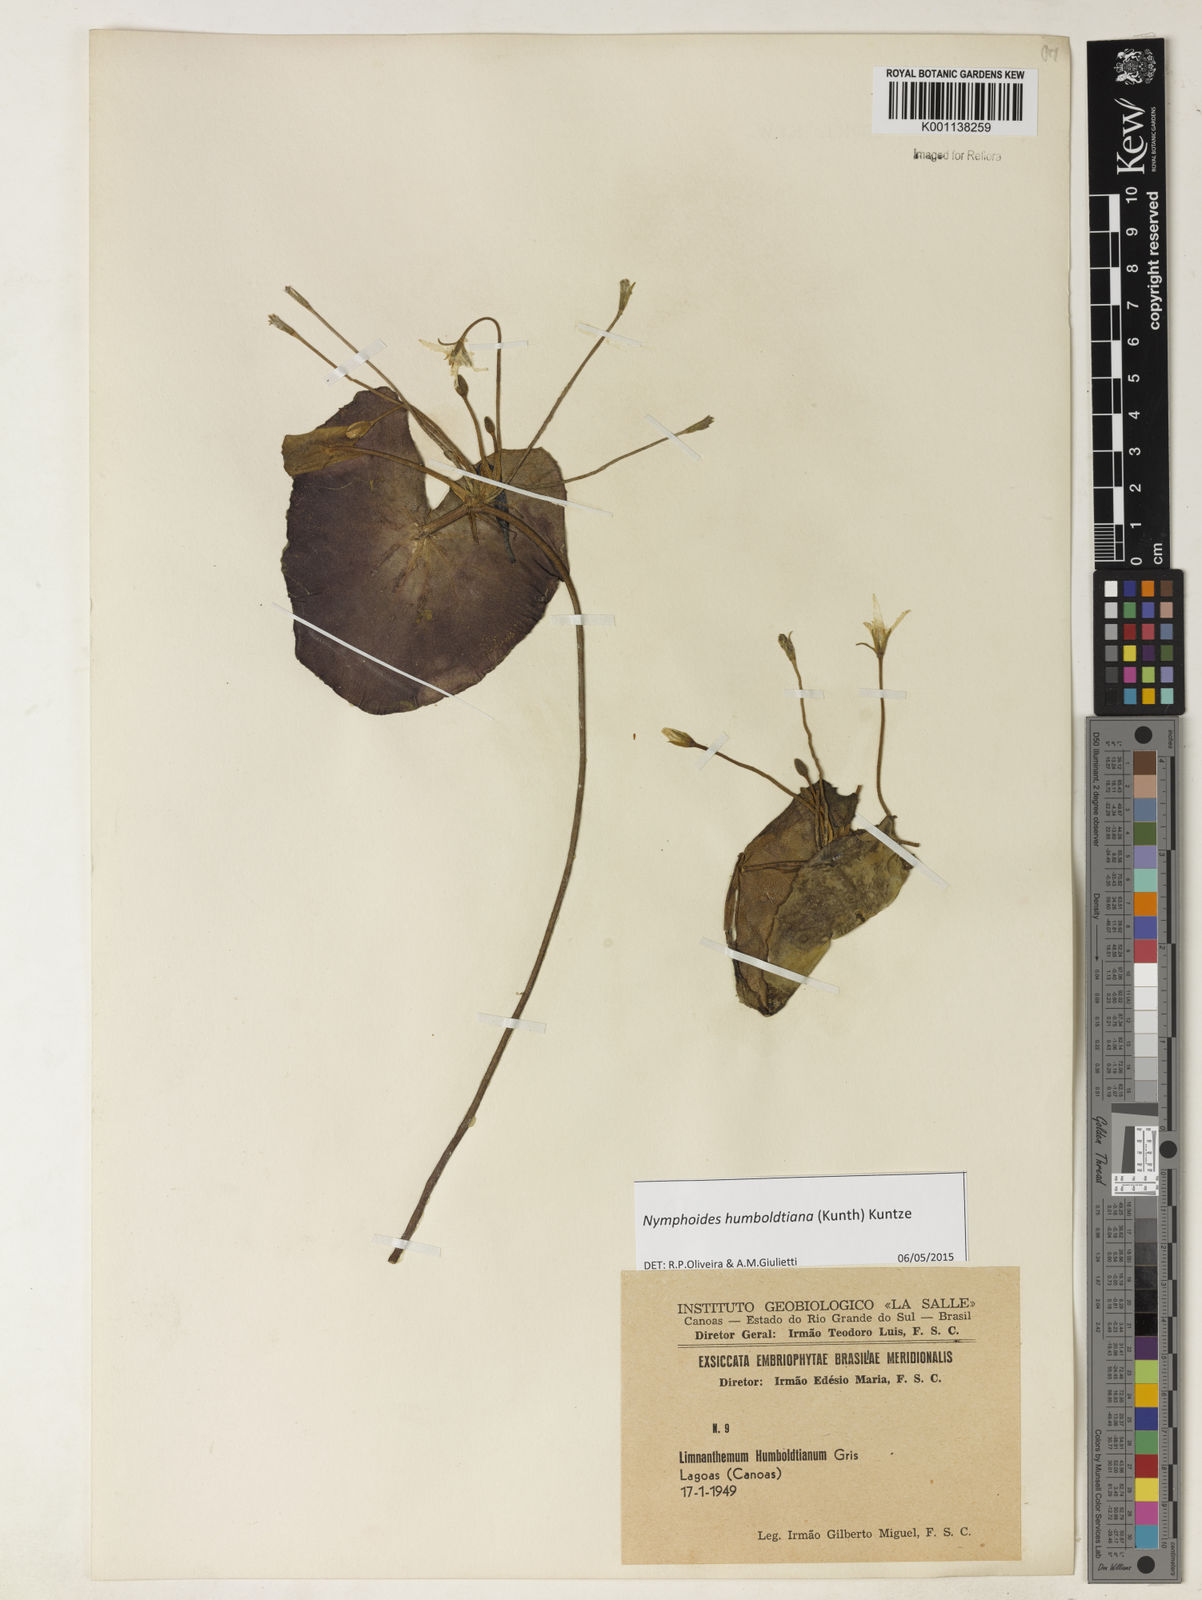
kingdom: Plantae
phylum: Tracheophyta
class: Magnoliopsida
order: Asterales
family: Menyanthaceae
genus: Nymphoides
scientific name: Nymphoides humboldtiana
